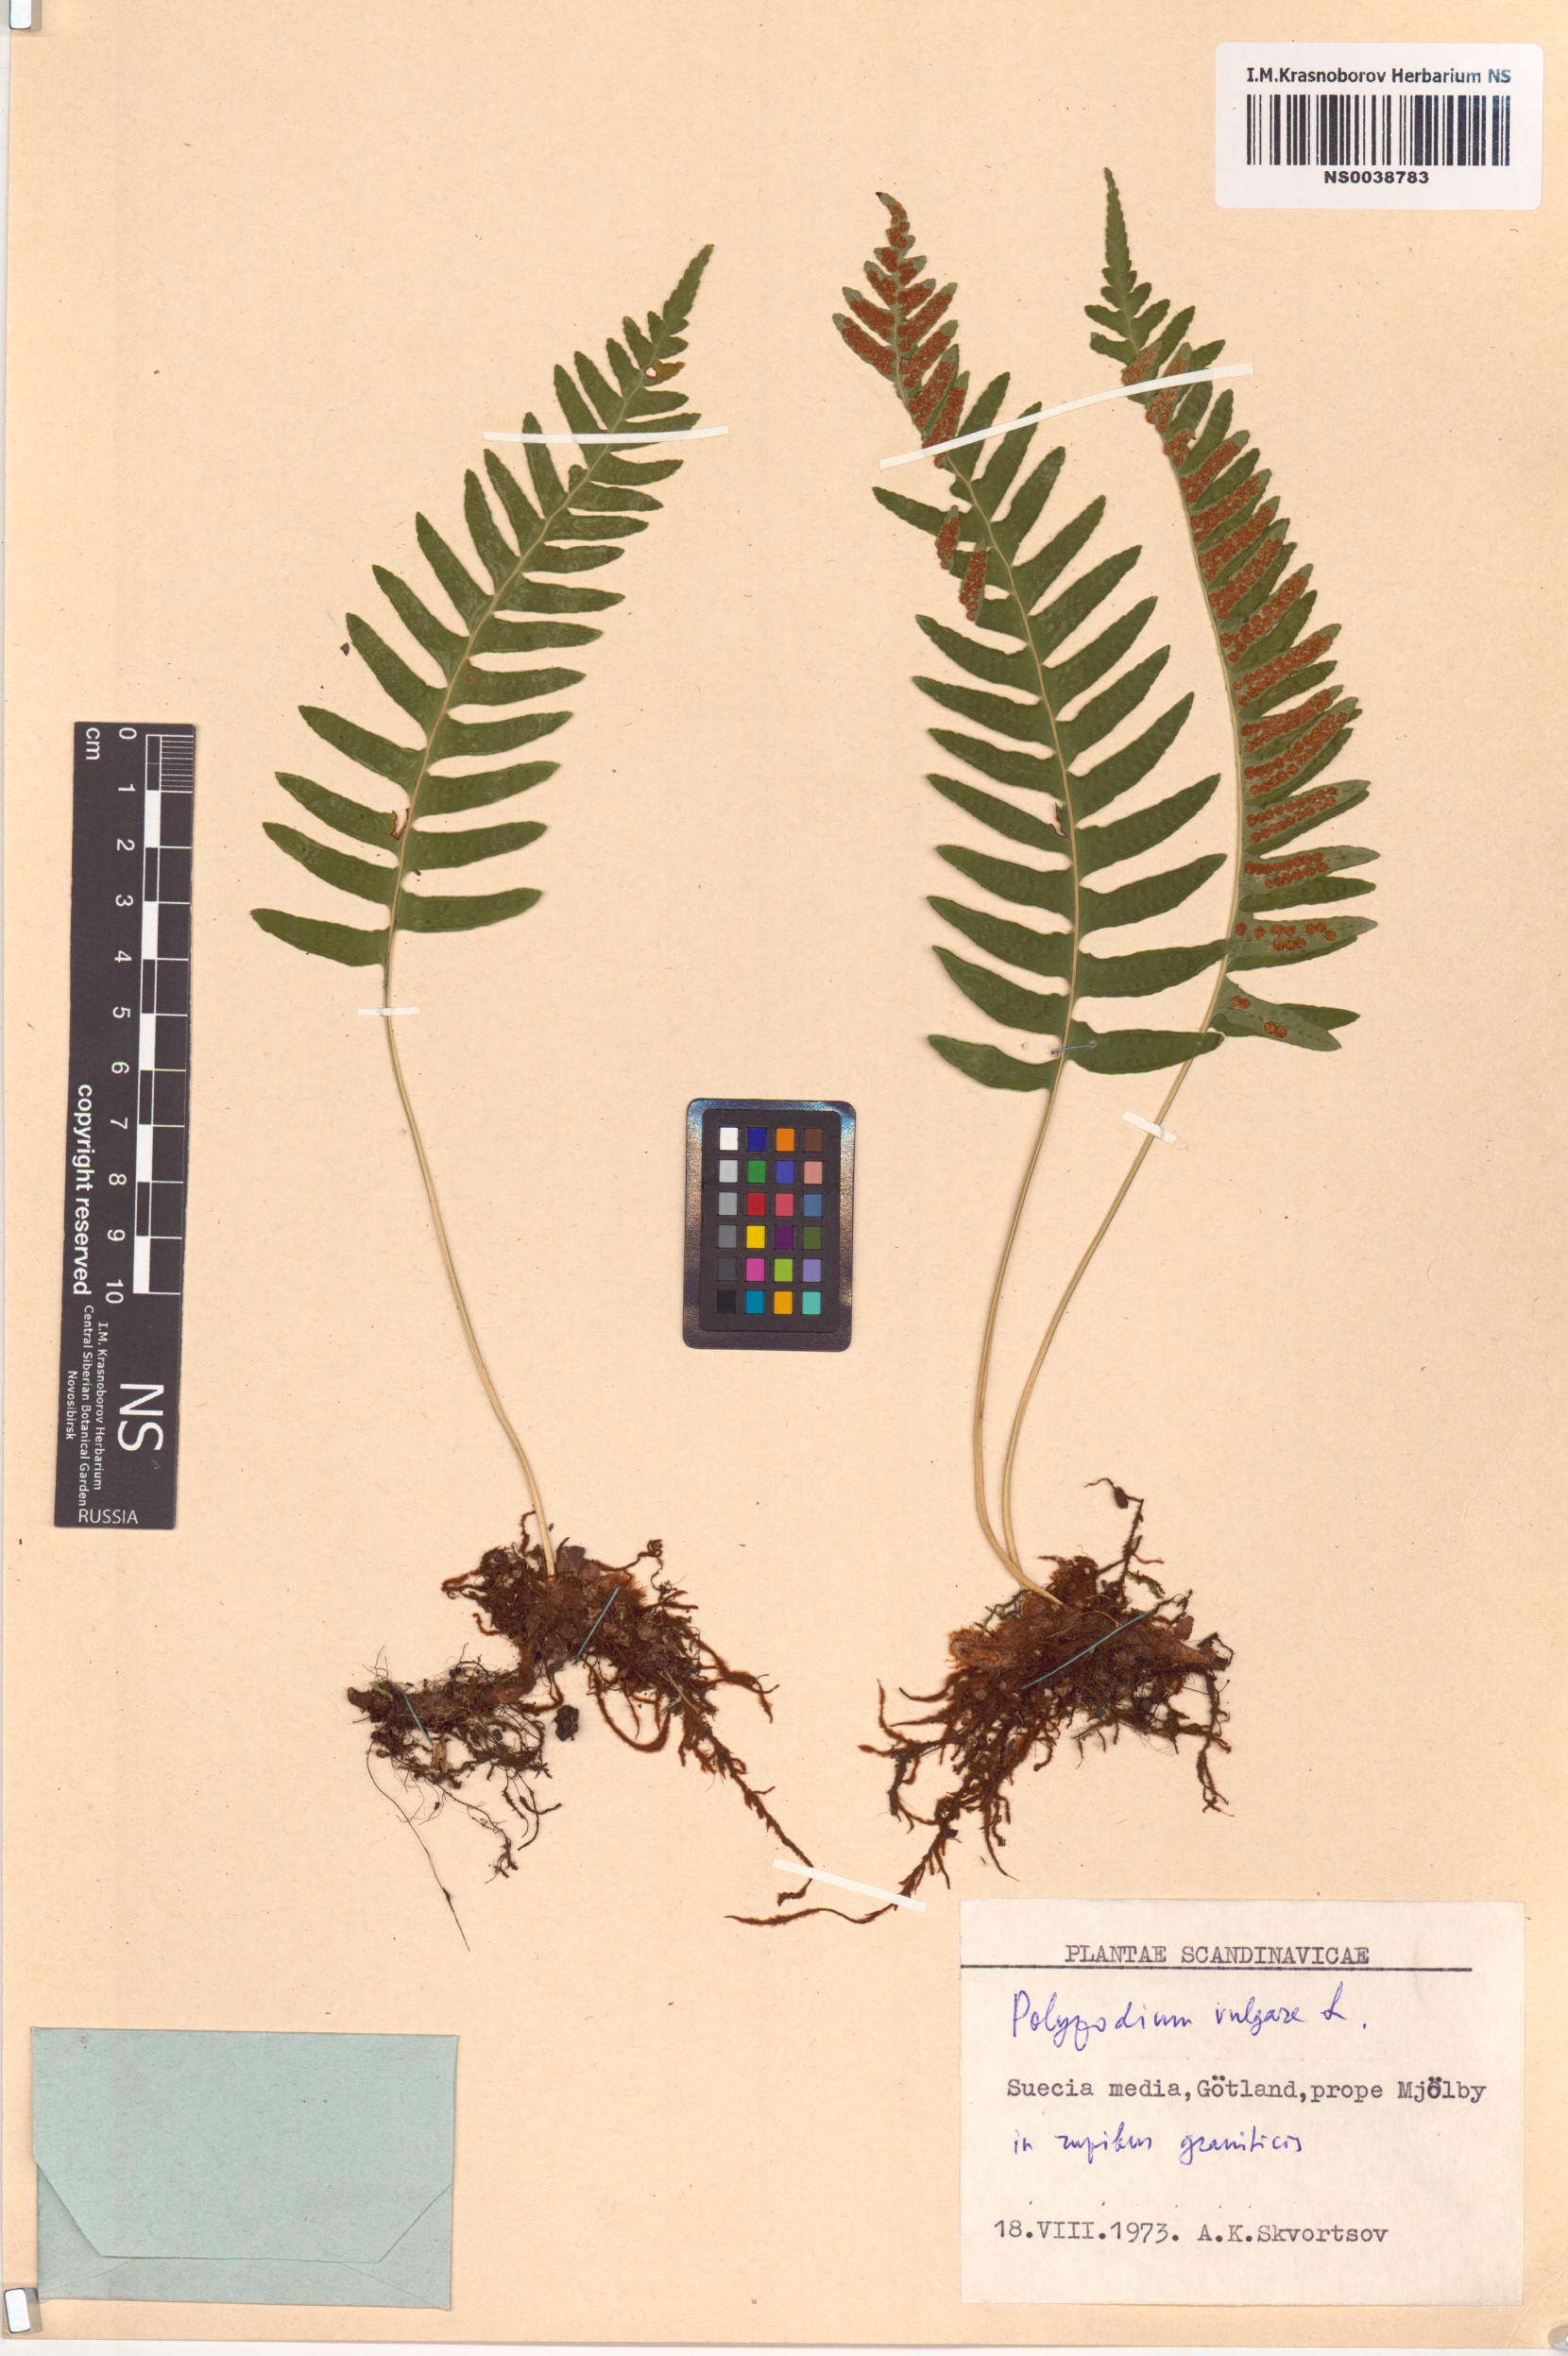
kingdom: Plantae
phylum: Tracheophyta
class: Polypodiopsida
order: Polypodiales
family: Polypodiaceae
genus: Polypodium
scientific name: Polypodium vulgare
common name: Common polypody
